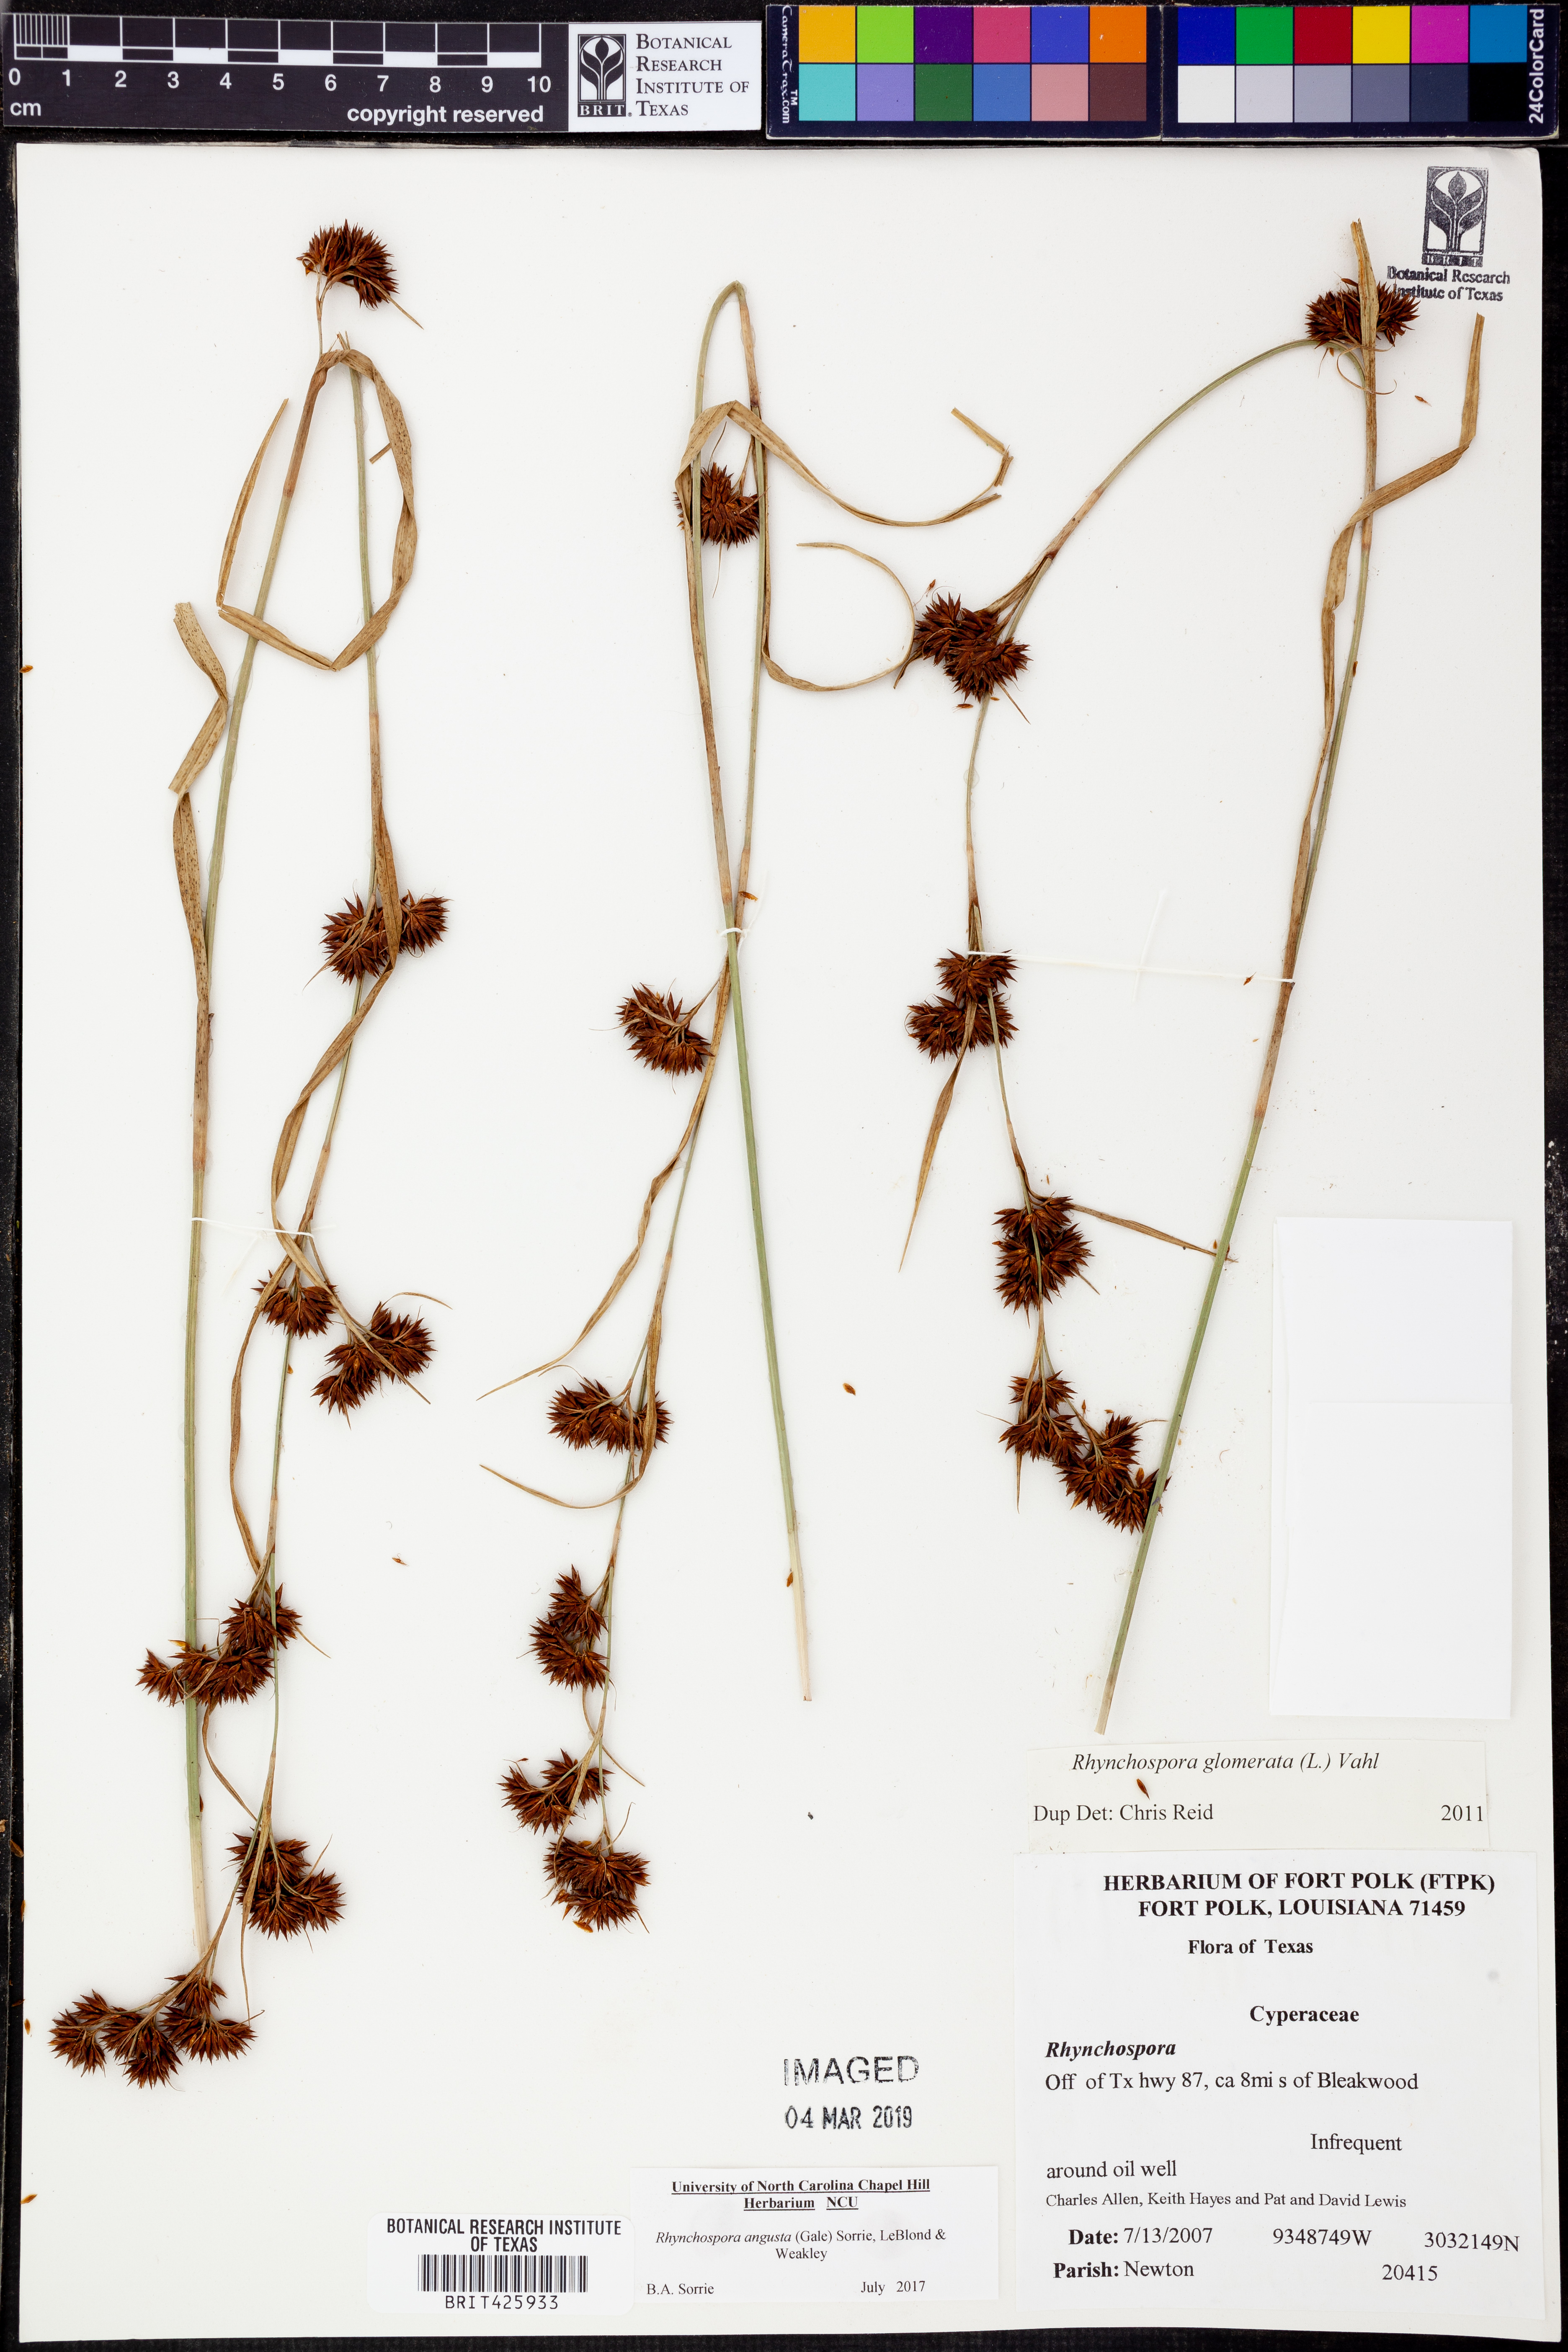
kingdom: Plantae
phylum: Tracheophyta
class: Liliopsida
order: Poales
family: Cyperaceae
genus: Rhynchospora
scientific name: Rhynchospora angusta
